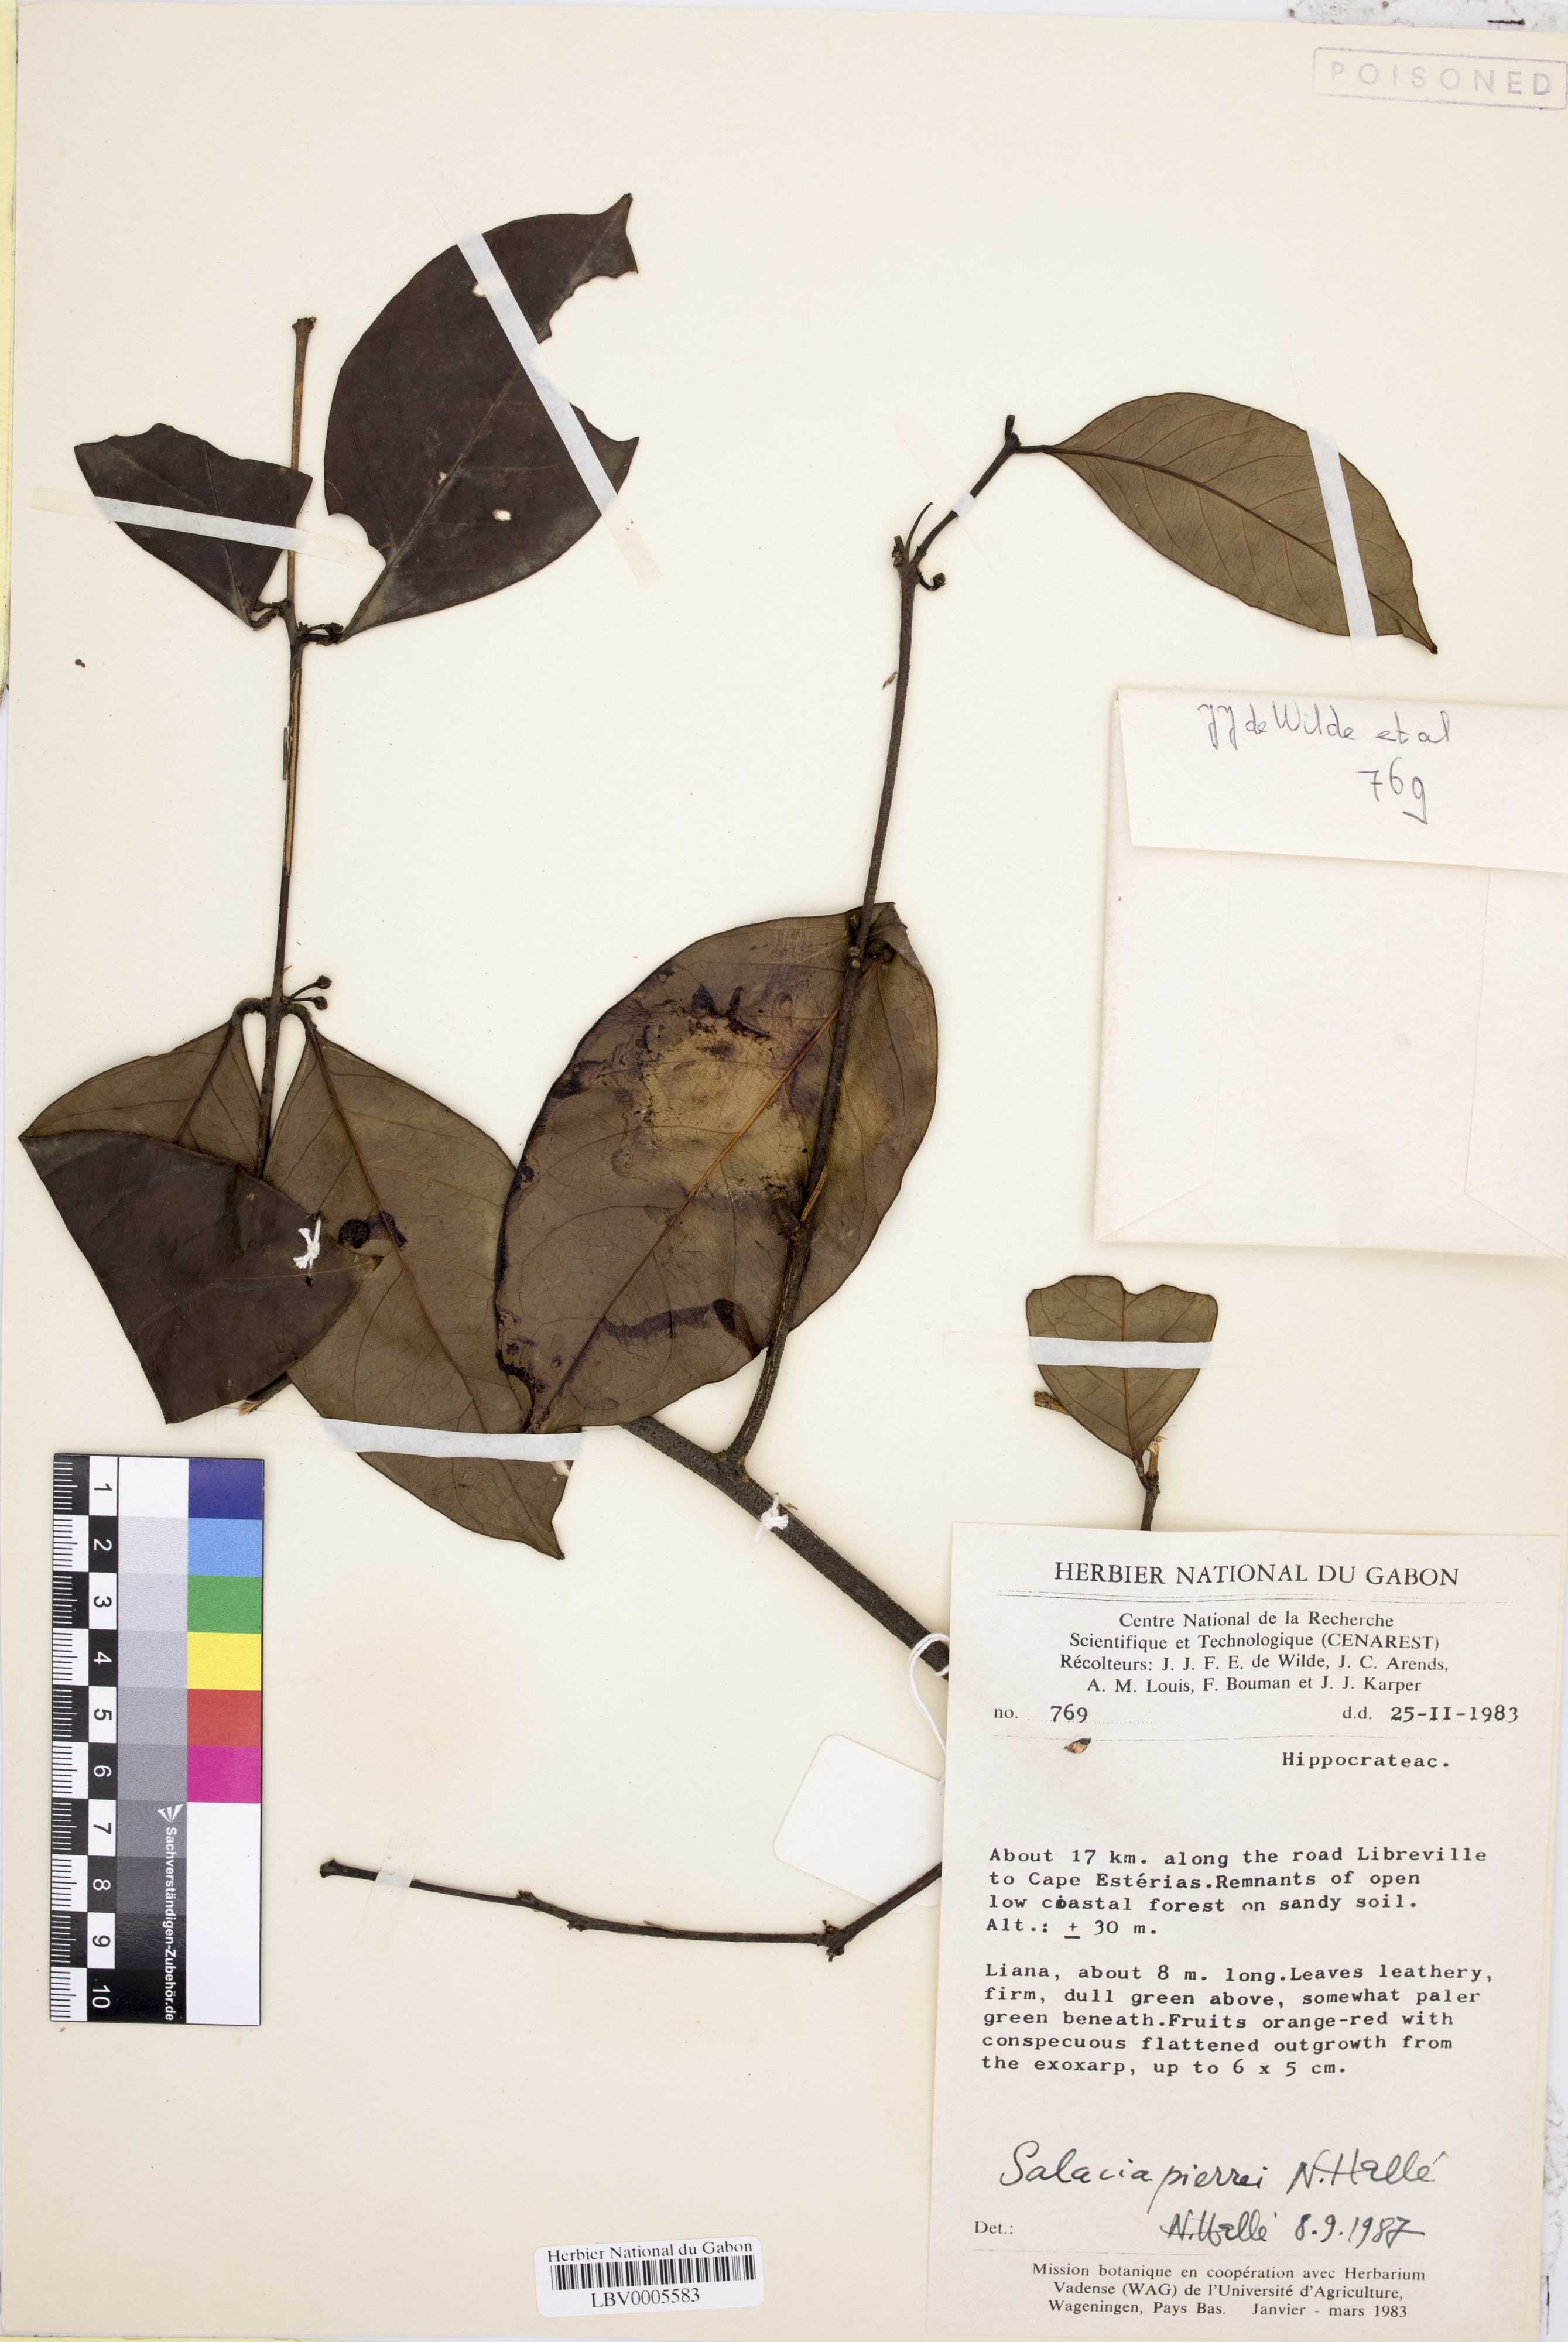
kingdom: Plantae
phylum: Tracheophyta
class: Magnoliopsida
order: Celastrales
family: Celastraceae
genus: Salacia
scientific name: Salacia pierrei
